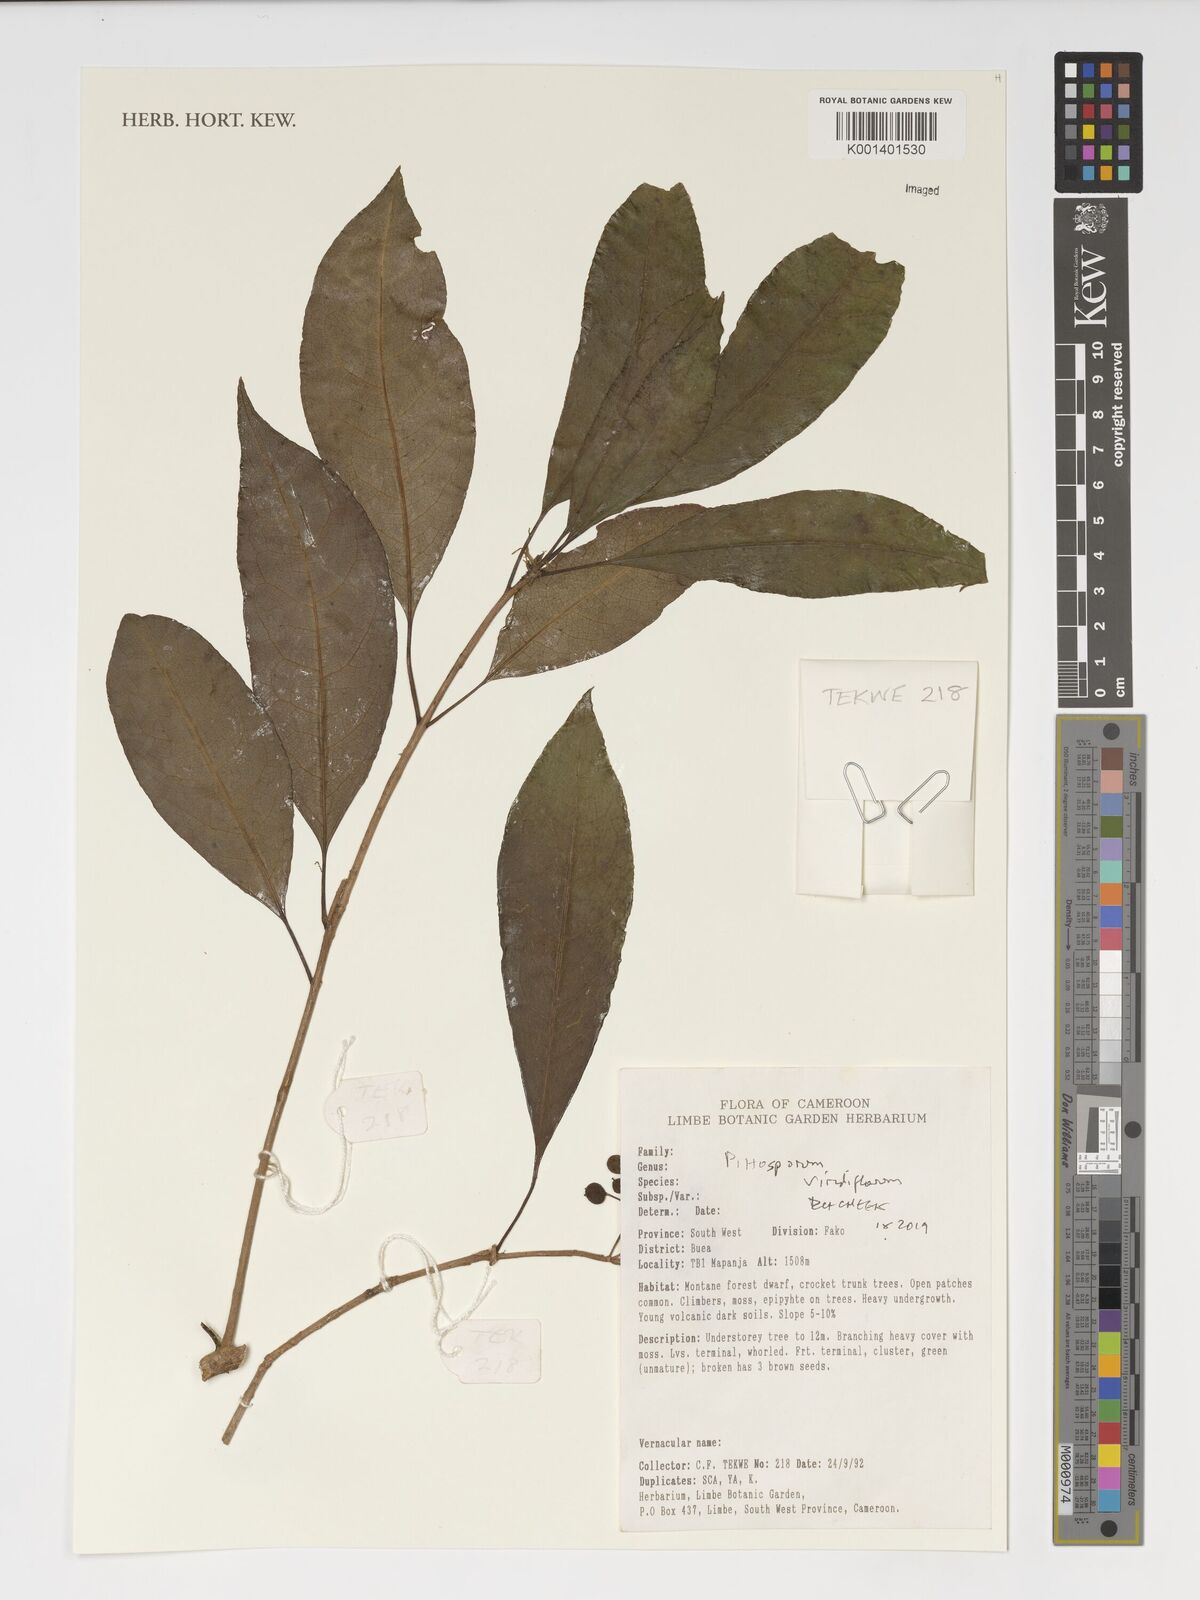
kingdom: Plantae
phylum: Tracheophyta
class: Magnoliopsida
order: Apiales
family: Pittosporaceae
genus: Pittosporum
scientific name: Pittosporum viridiflorum
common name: Cape cheesewood
